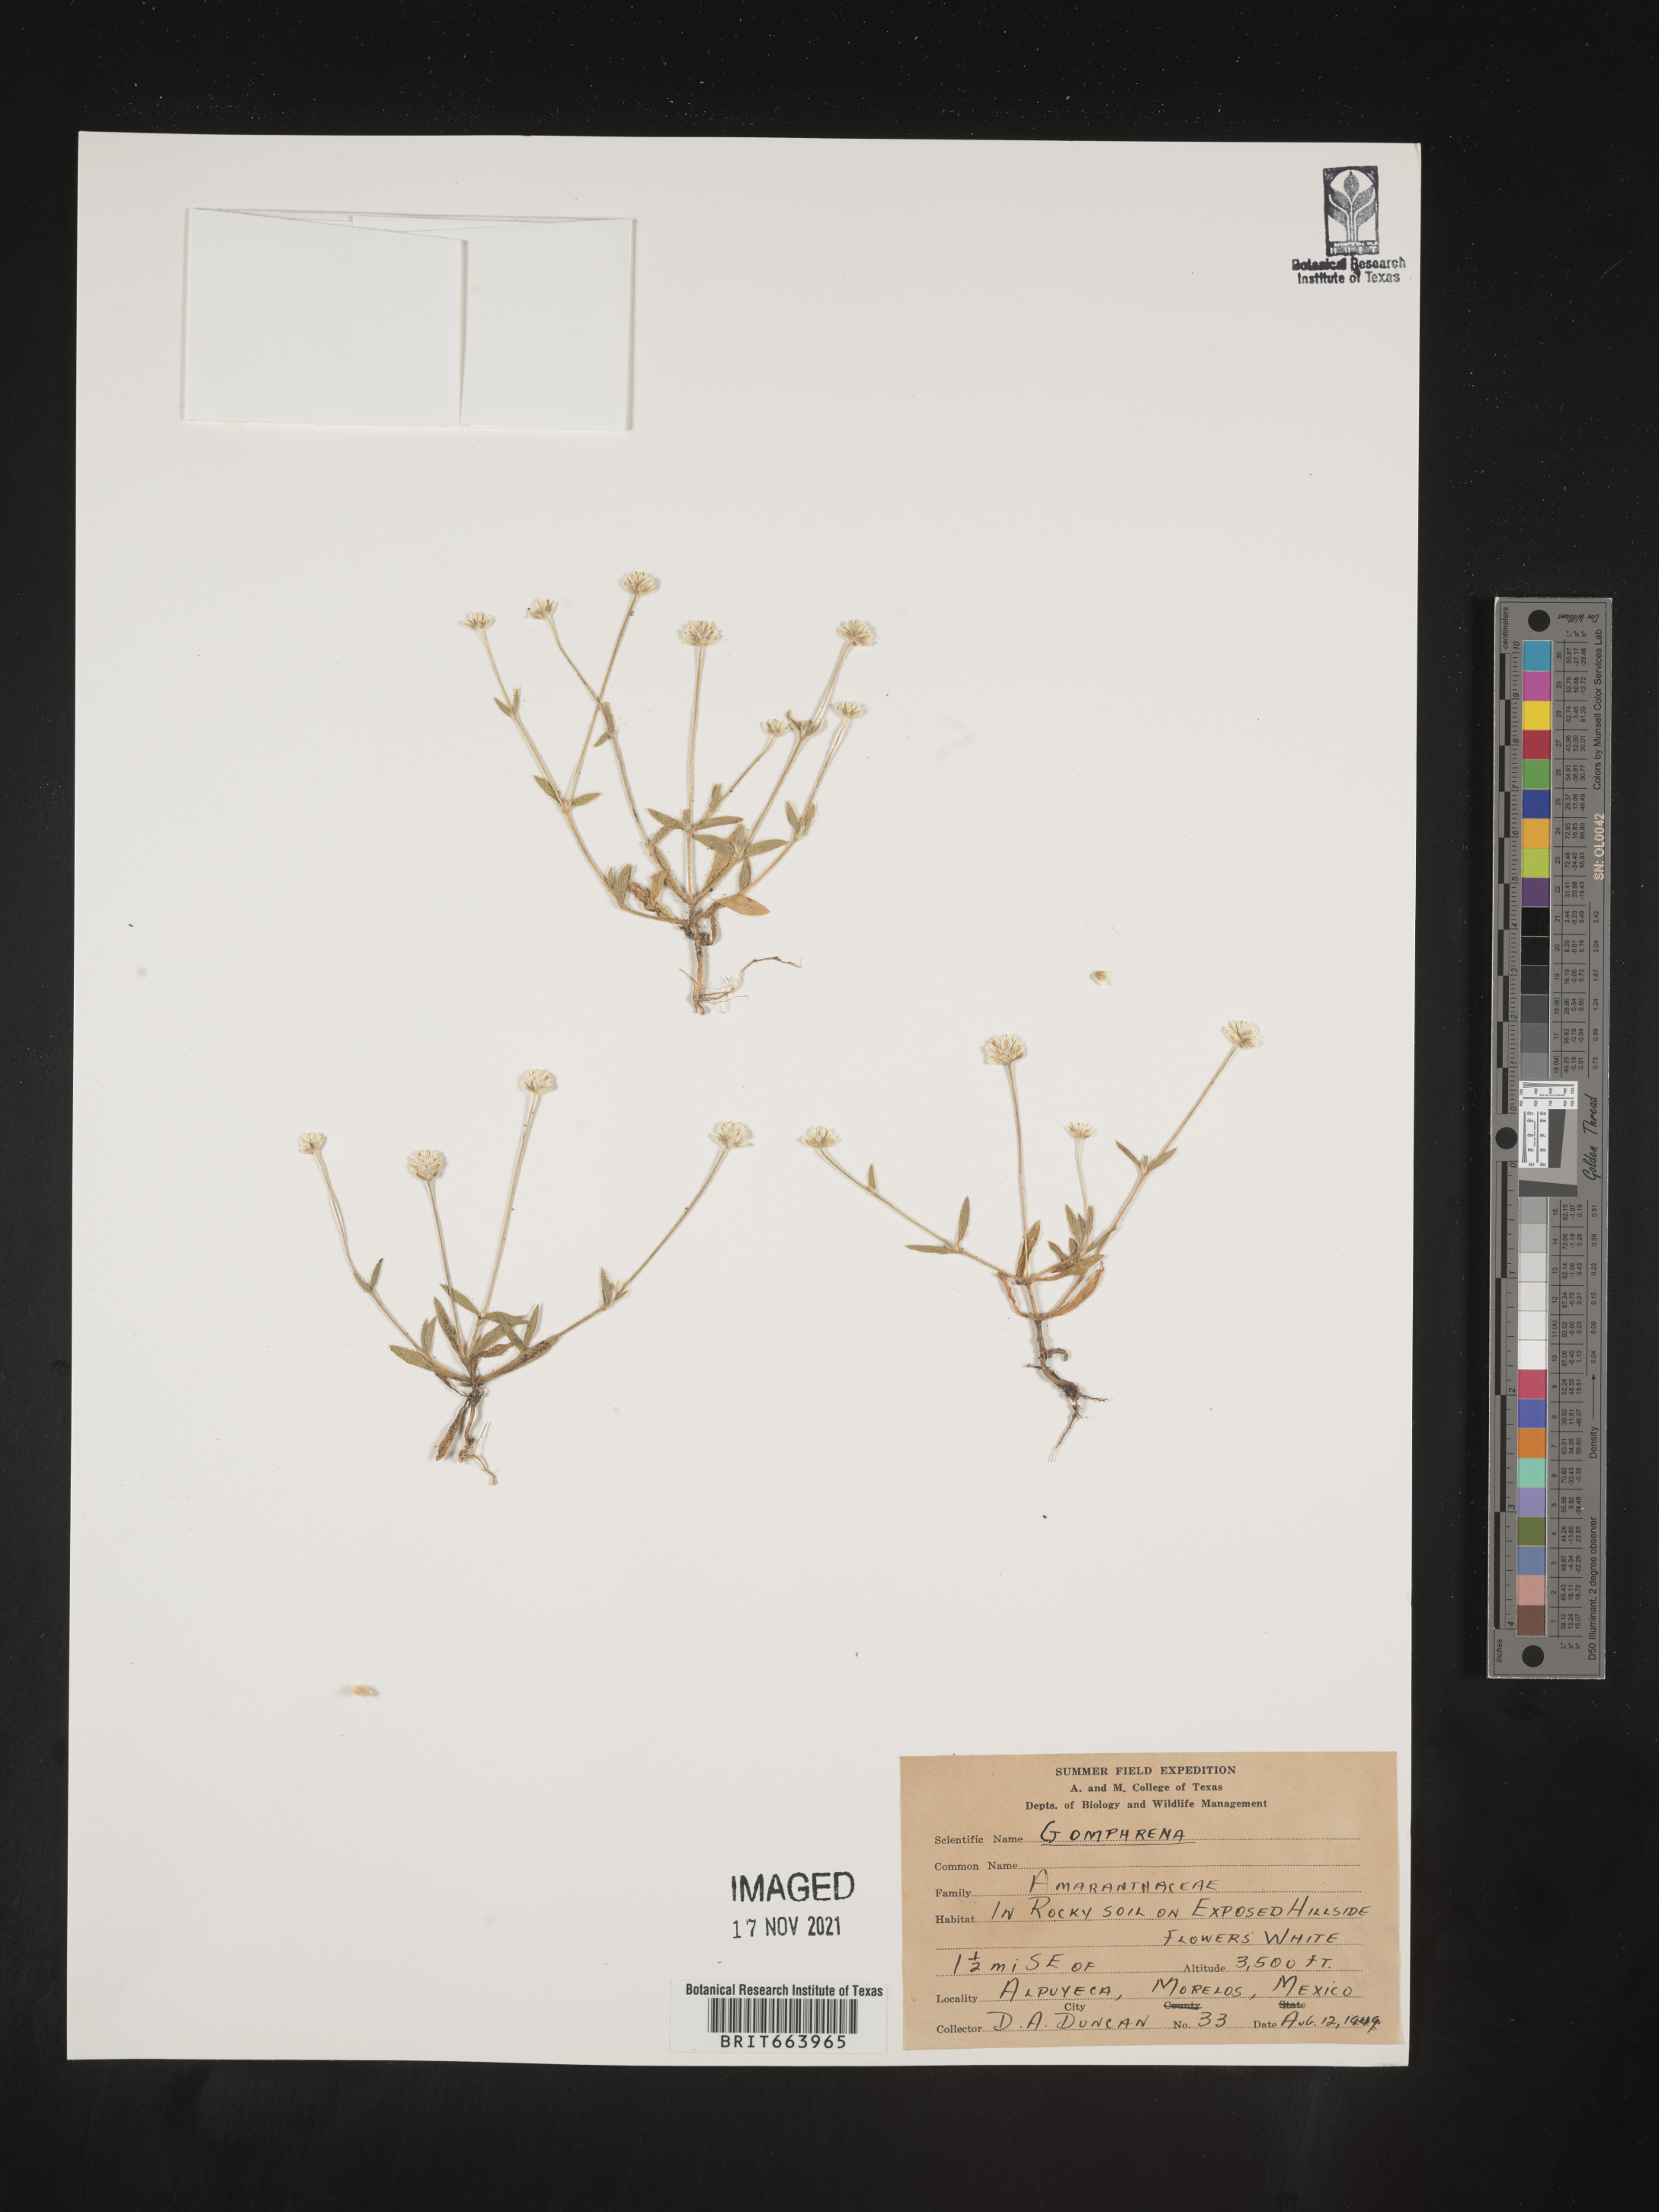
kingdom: Plantae
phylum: Tracheophyta
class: Magnoliopsida
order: Caryophyllales
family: Amaranthaceae
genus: Gomphrena
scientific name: Gomphrena
